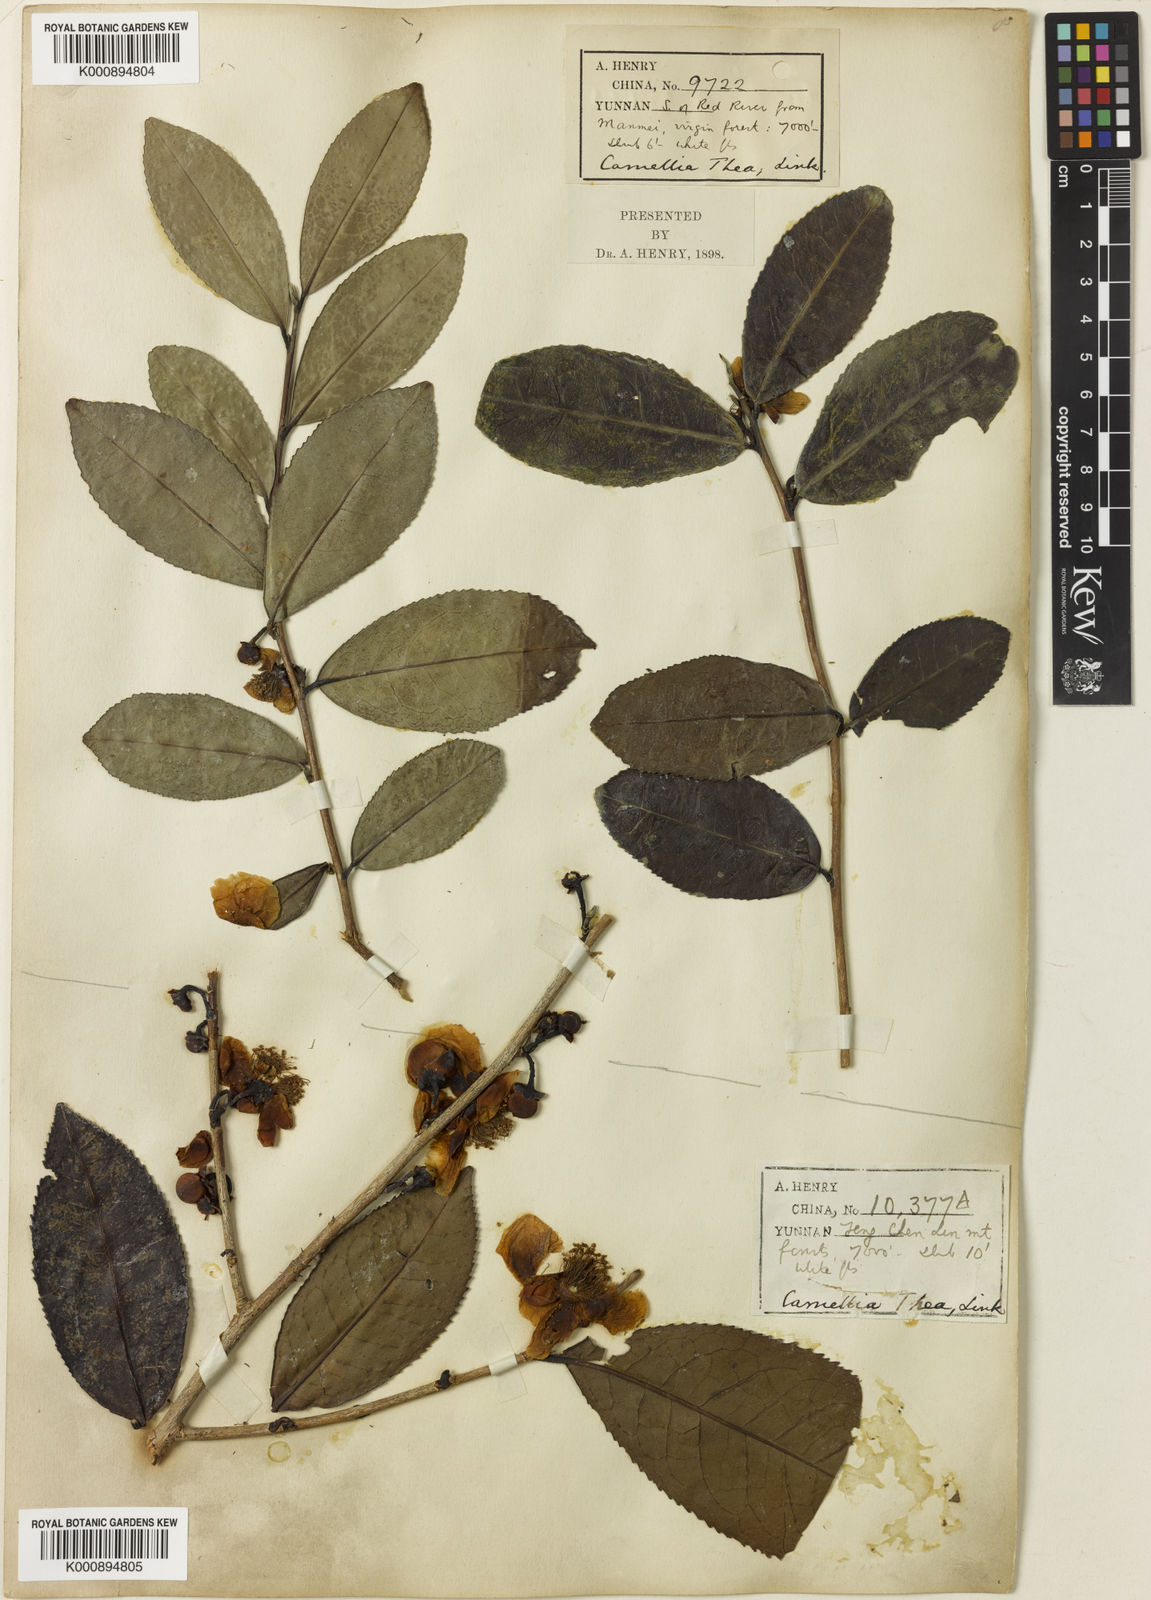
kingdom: Plantae
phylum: Tracheophyta
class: Magnoliopsida
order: Ericales
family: Theaceae
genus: Camellia
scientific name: Camellia sinensis
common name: Tea
